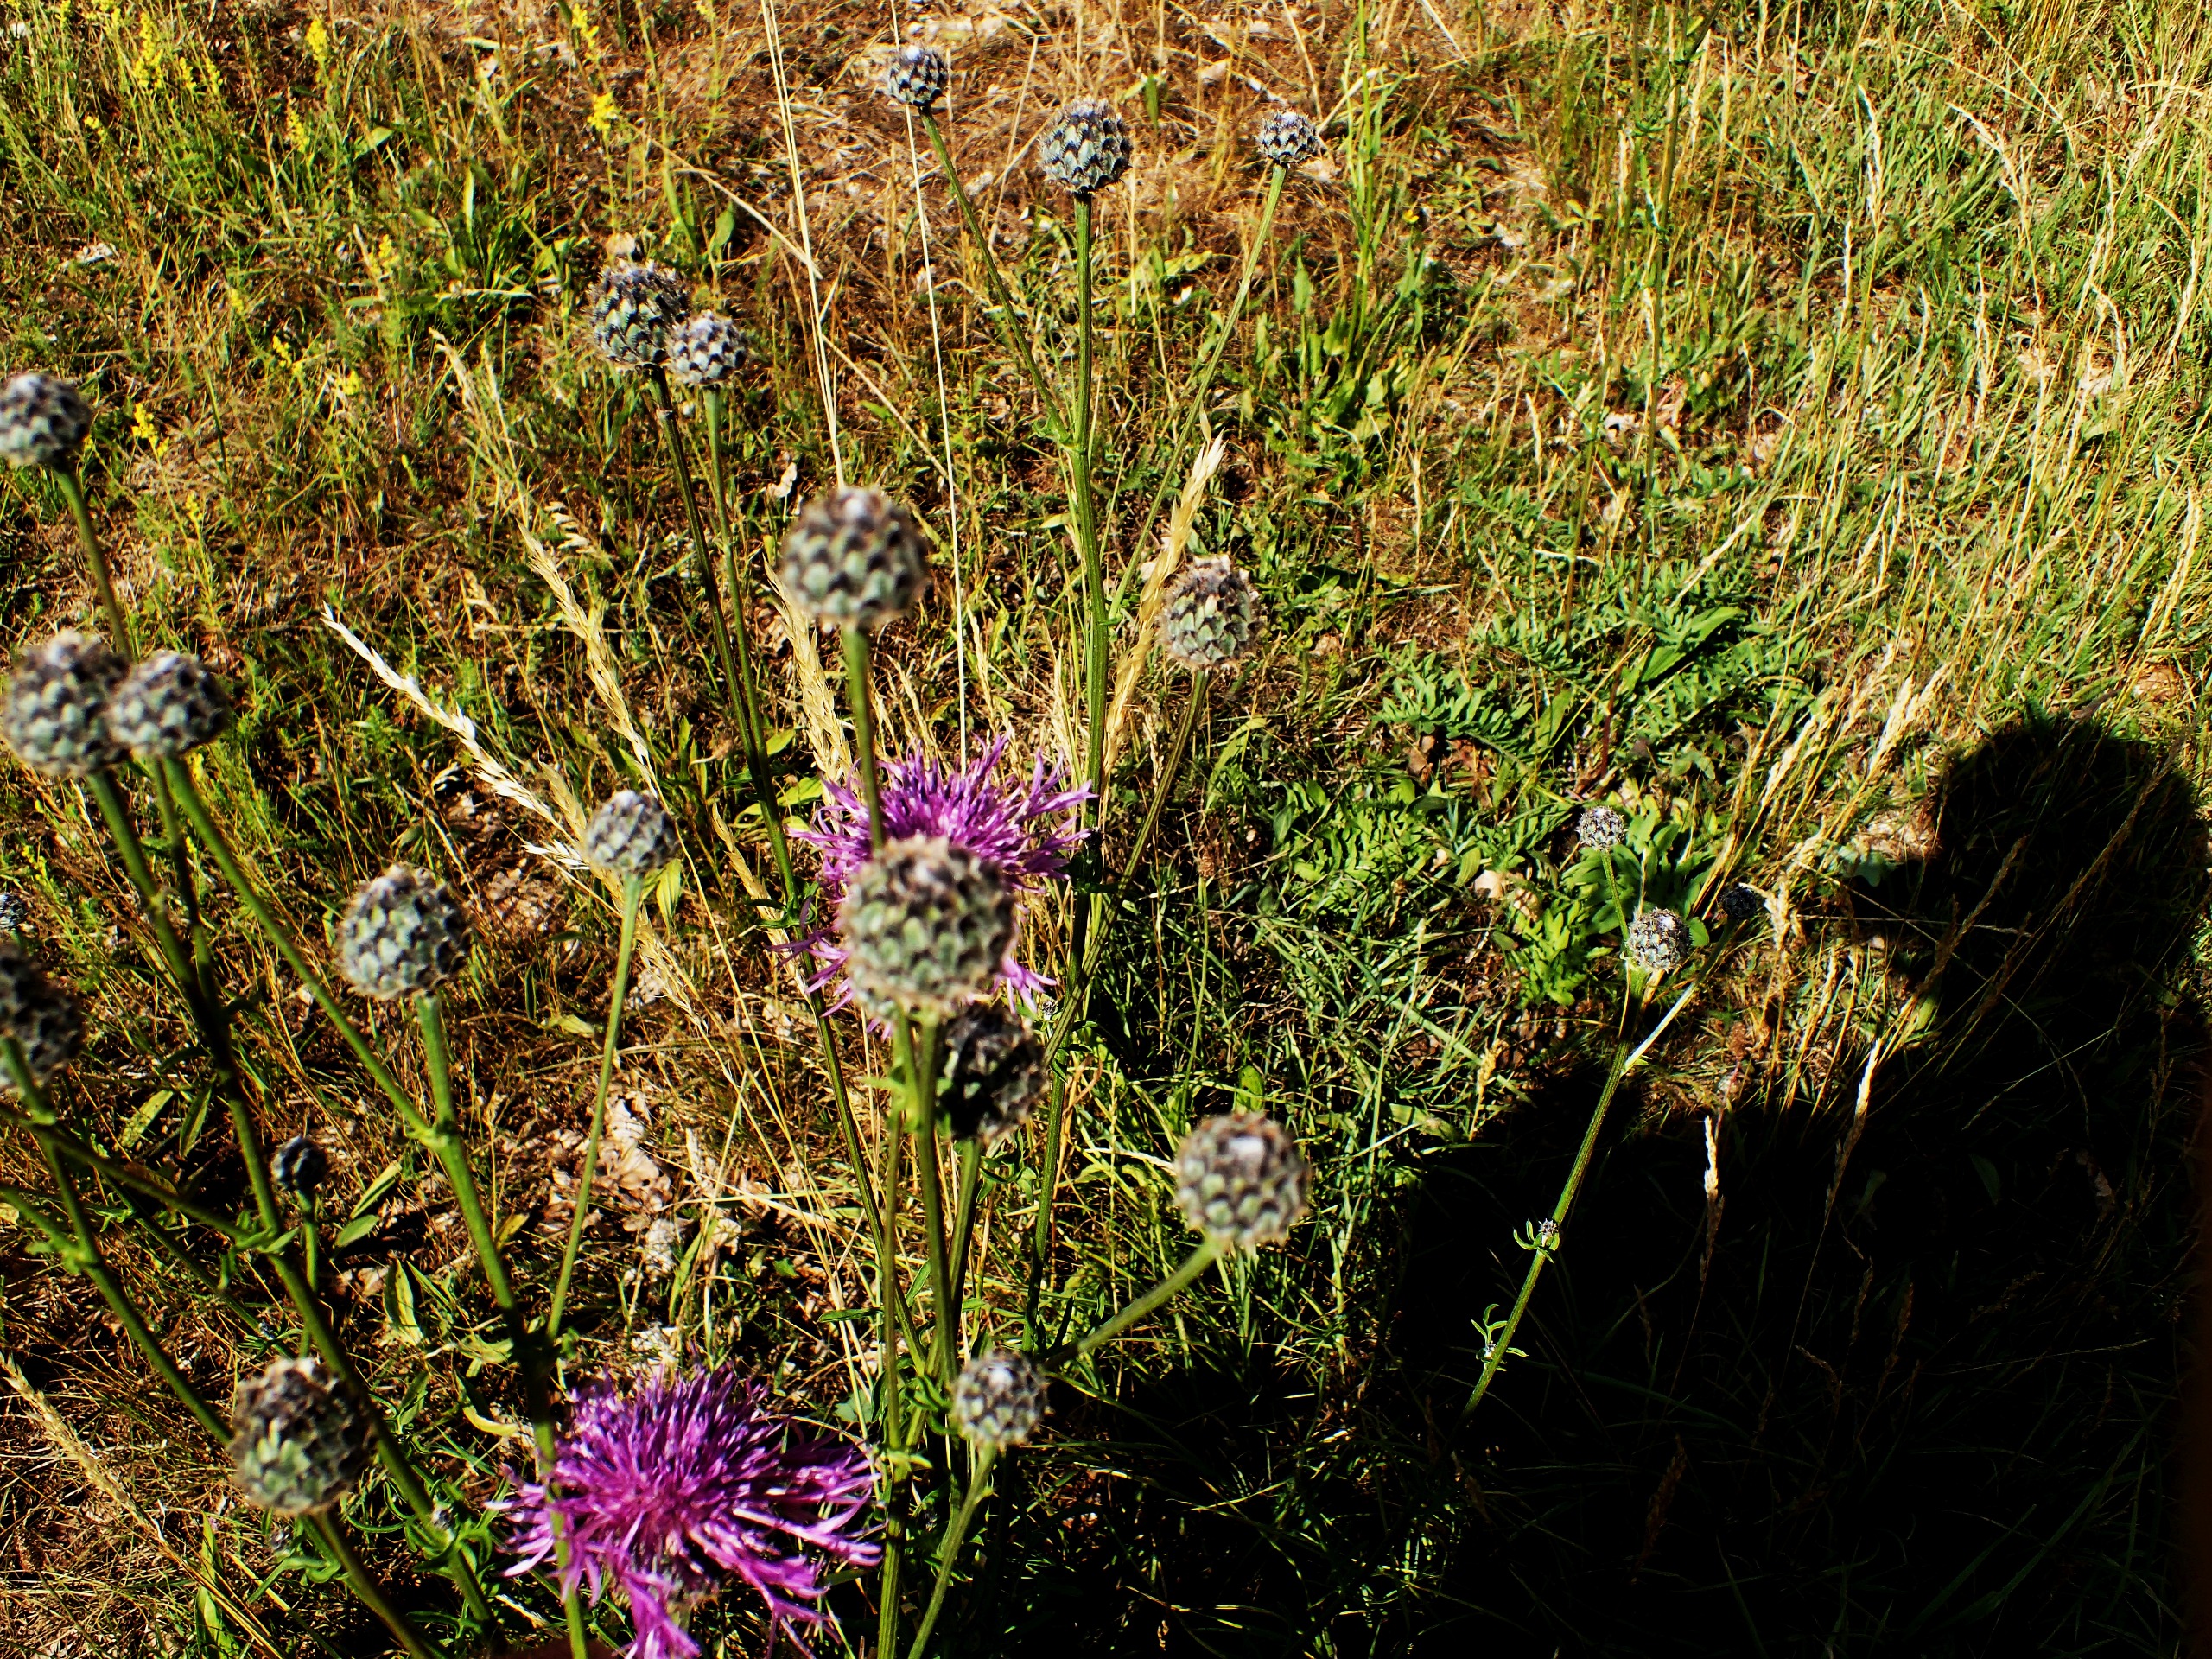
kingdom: Plantae
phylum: Tracheophyta
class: Magnoliopsida
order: Asterales
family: Asteraceae
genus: Centaurea
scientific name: Centaurea scabiosa
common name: Stor knopurt
